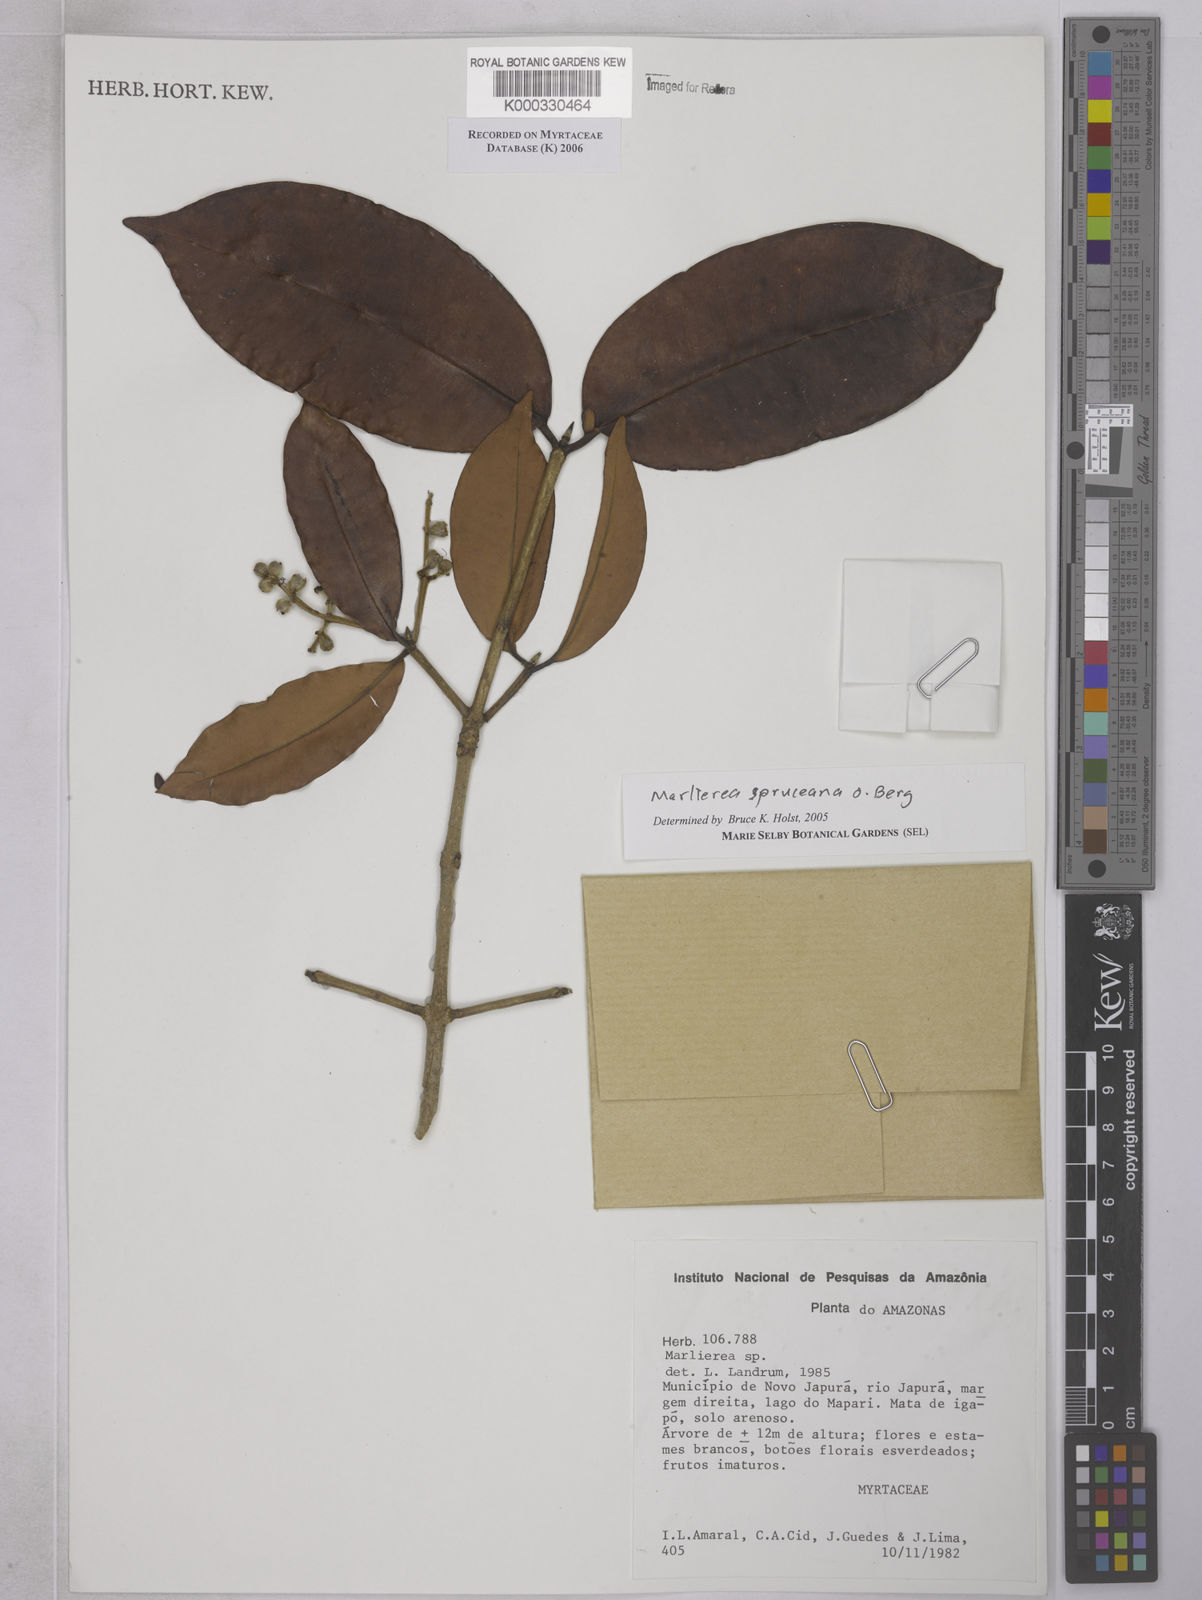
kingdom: Plantae
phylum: Tracheophyta
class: Magnoliopsida
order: Myrtales
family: Myrtaceae
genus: Myrcia
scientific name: Myrcia argentigemma
